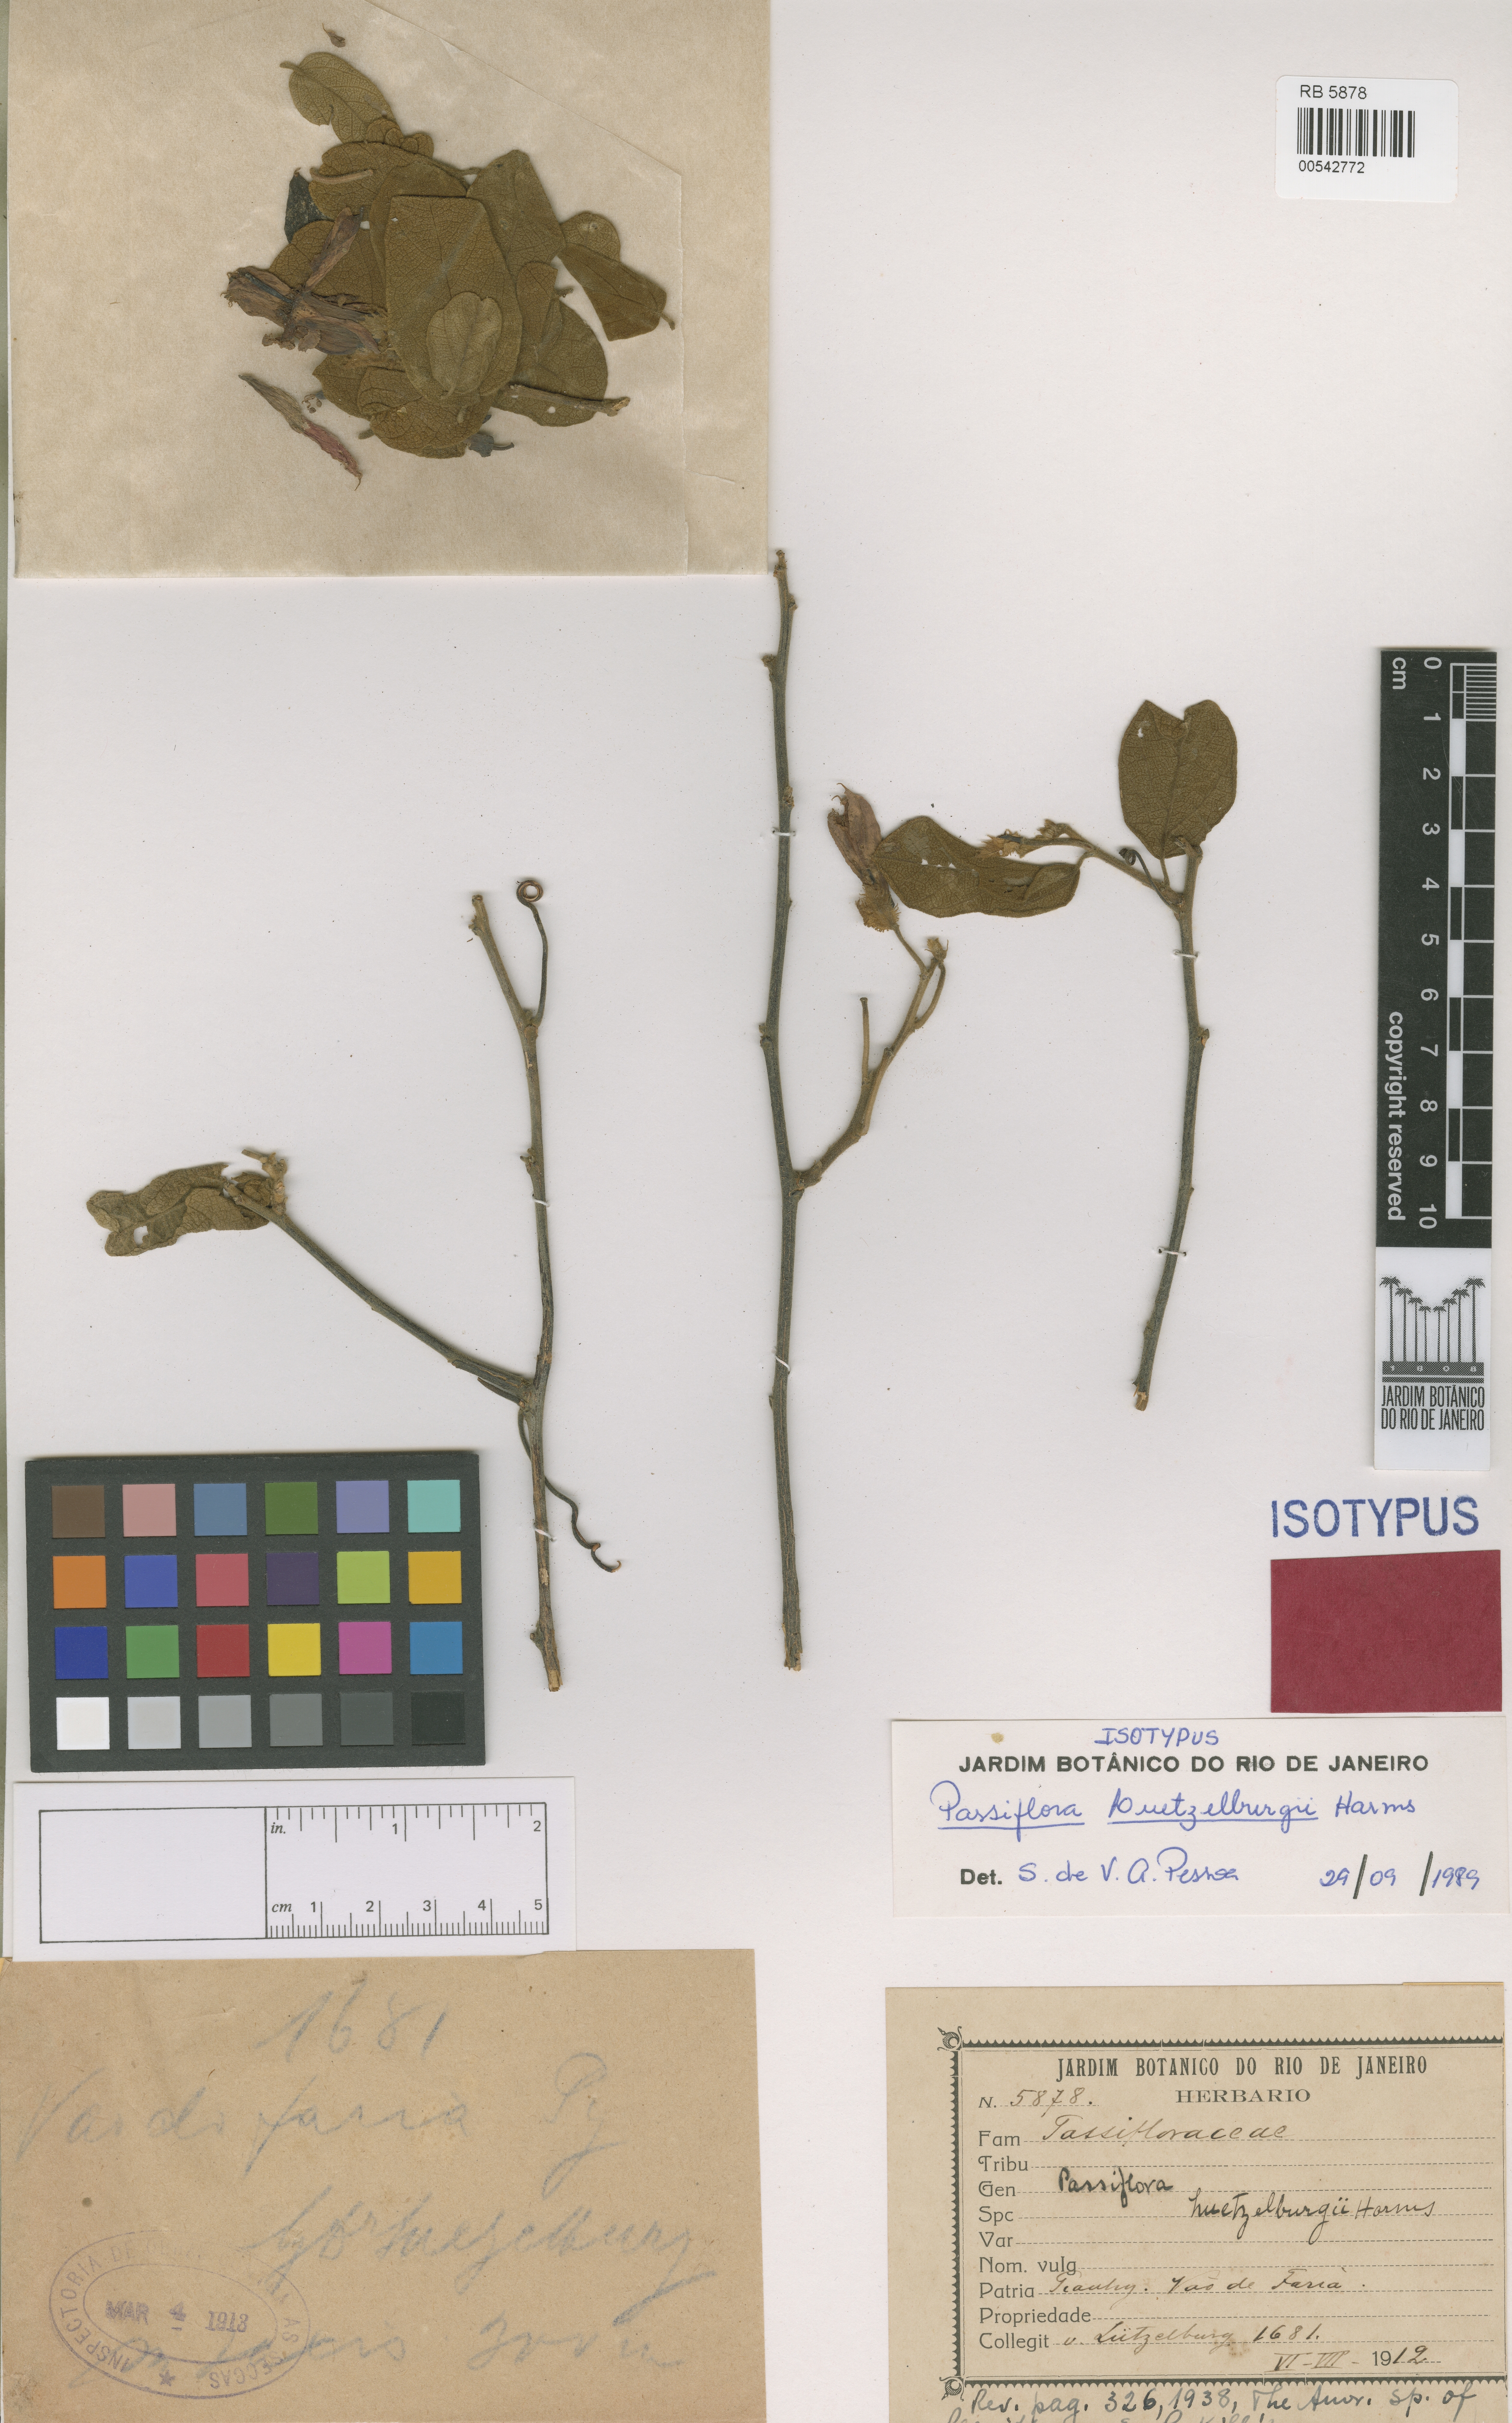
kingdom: Plantae
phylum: Tracheophyta
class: Magnoliopsida
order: Malpighiales
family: Passifloraceae
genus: Passiflora
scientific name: Passiflora luetzelburgii
